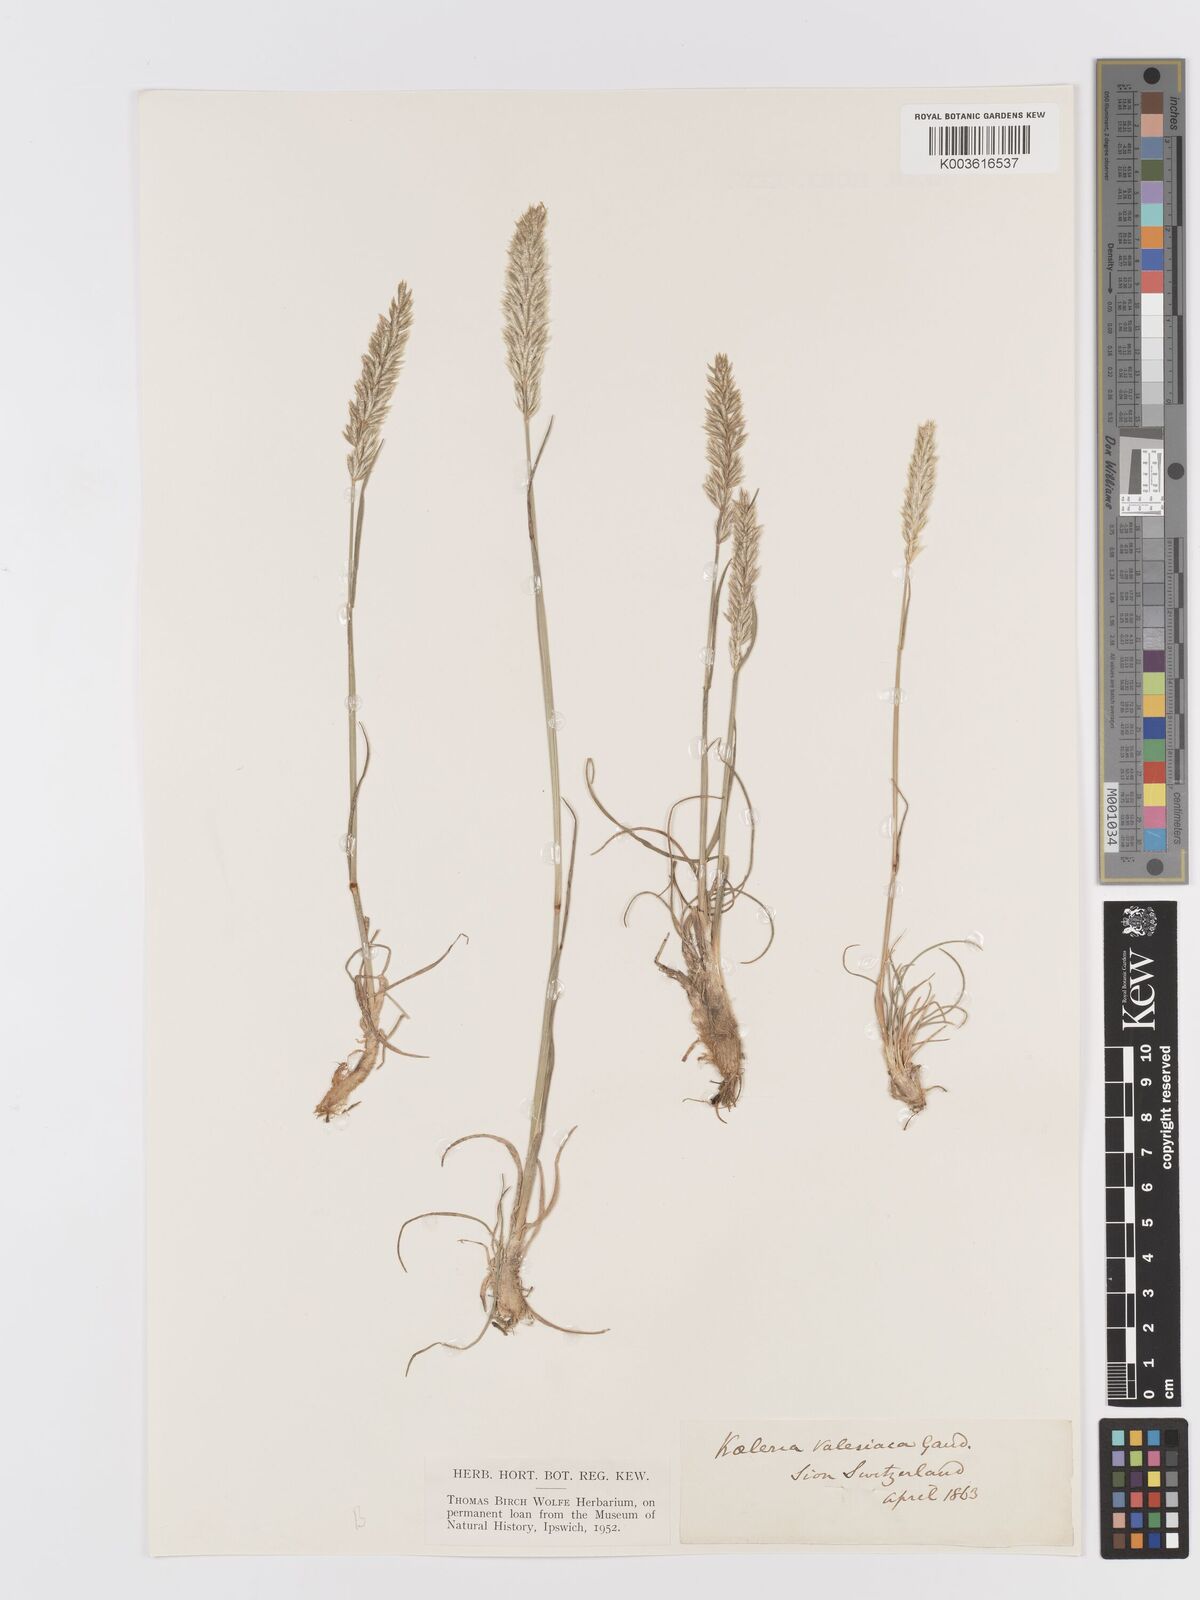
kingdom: Plantae
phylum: Tracheophyta
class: Liliopsida
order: Poales
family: Poaceae
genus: Koeleria
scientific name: Koeleria vallesiana
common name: Somerset hair-grass
